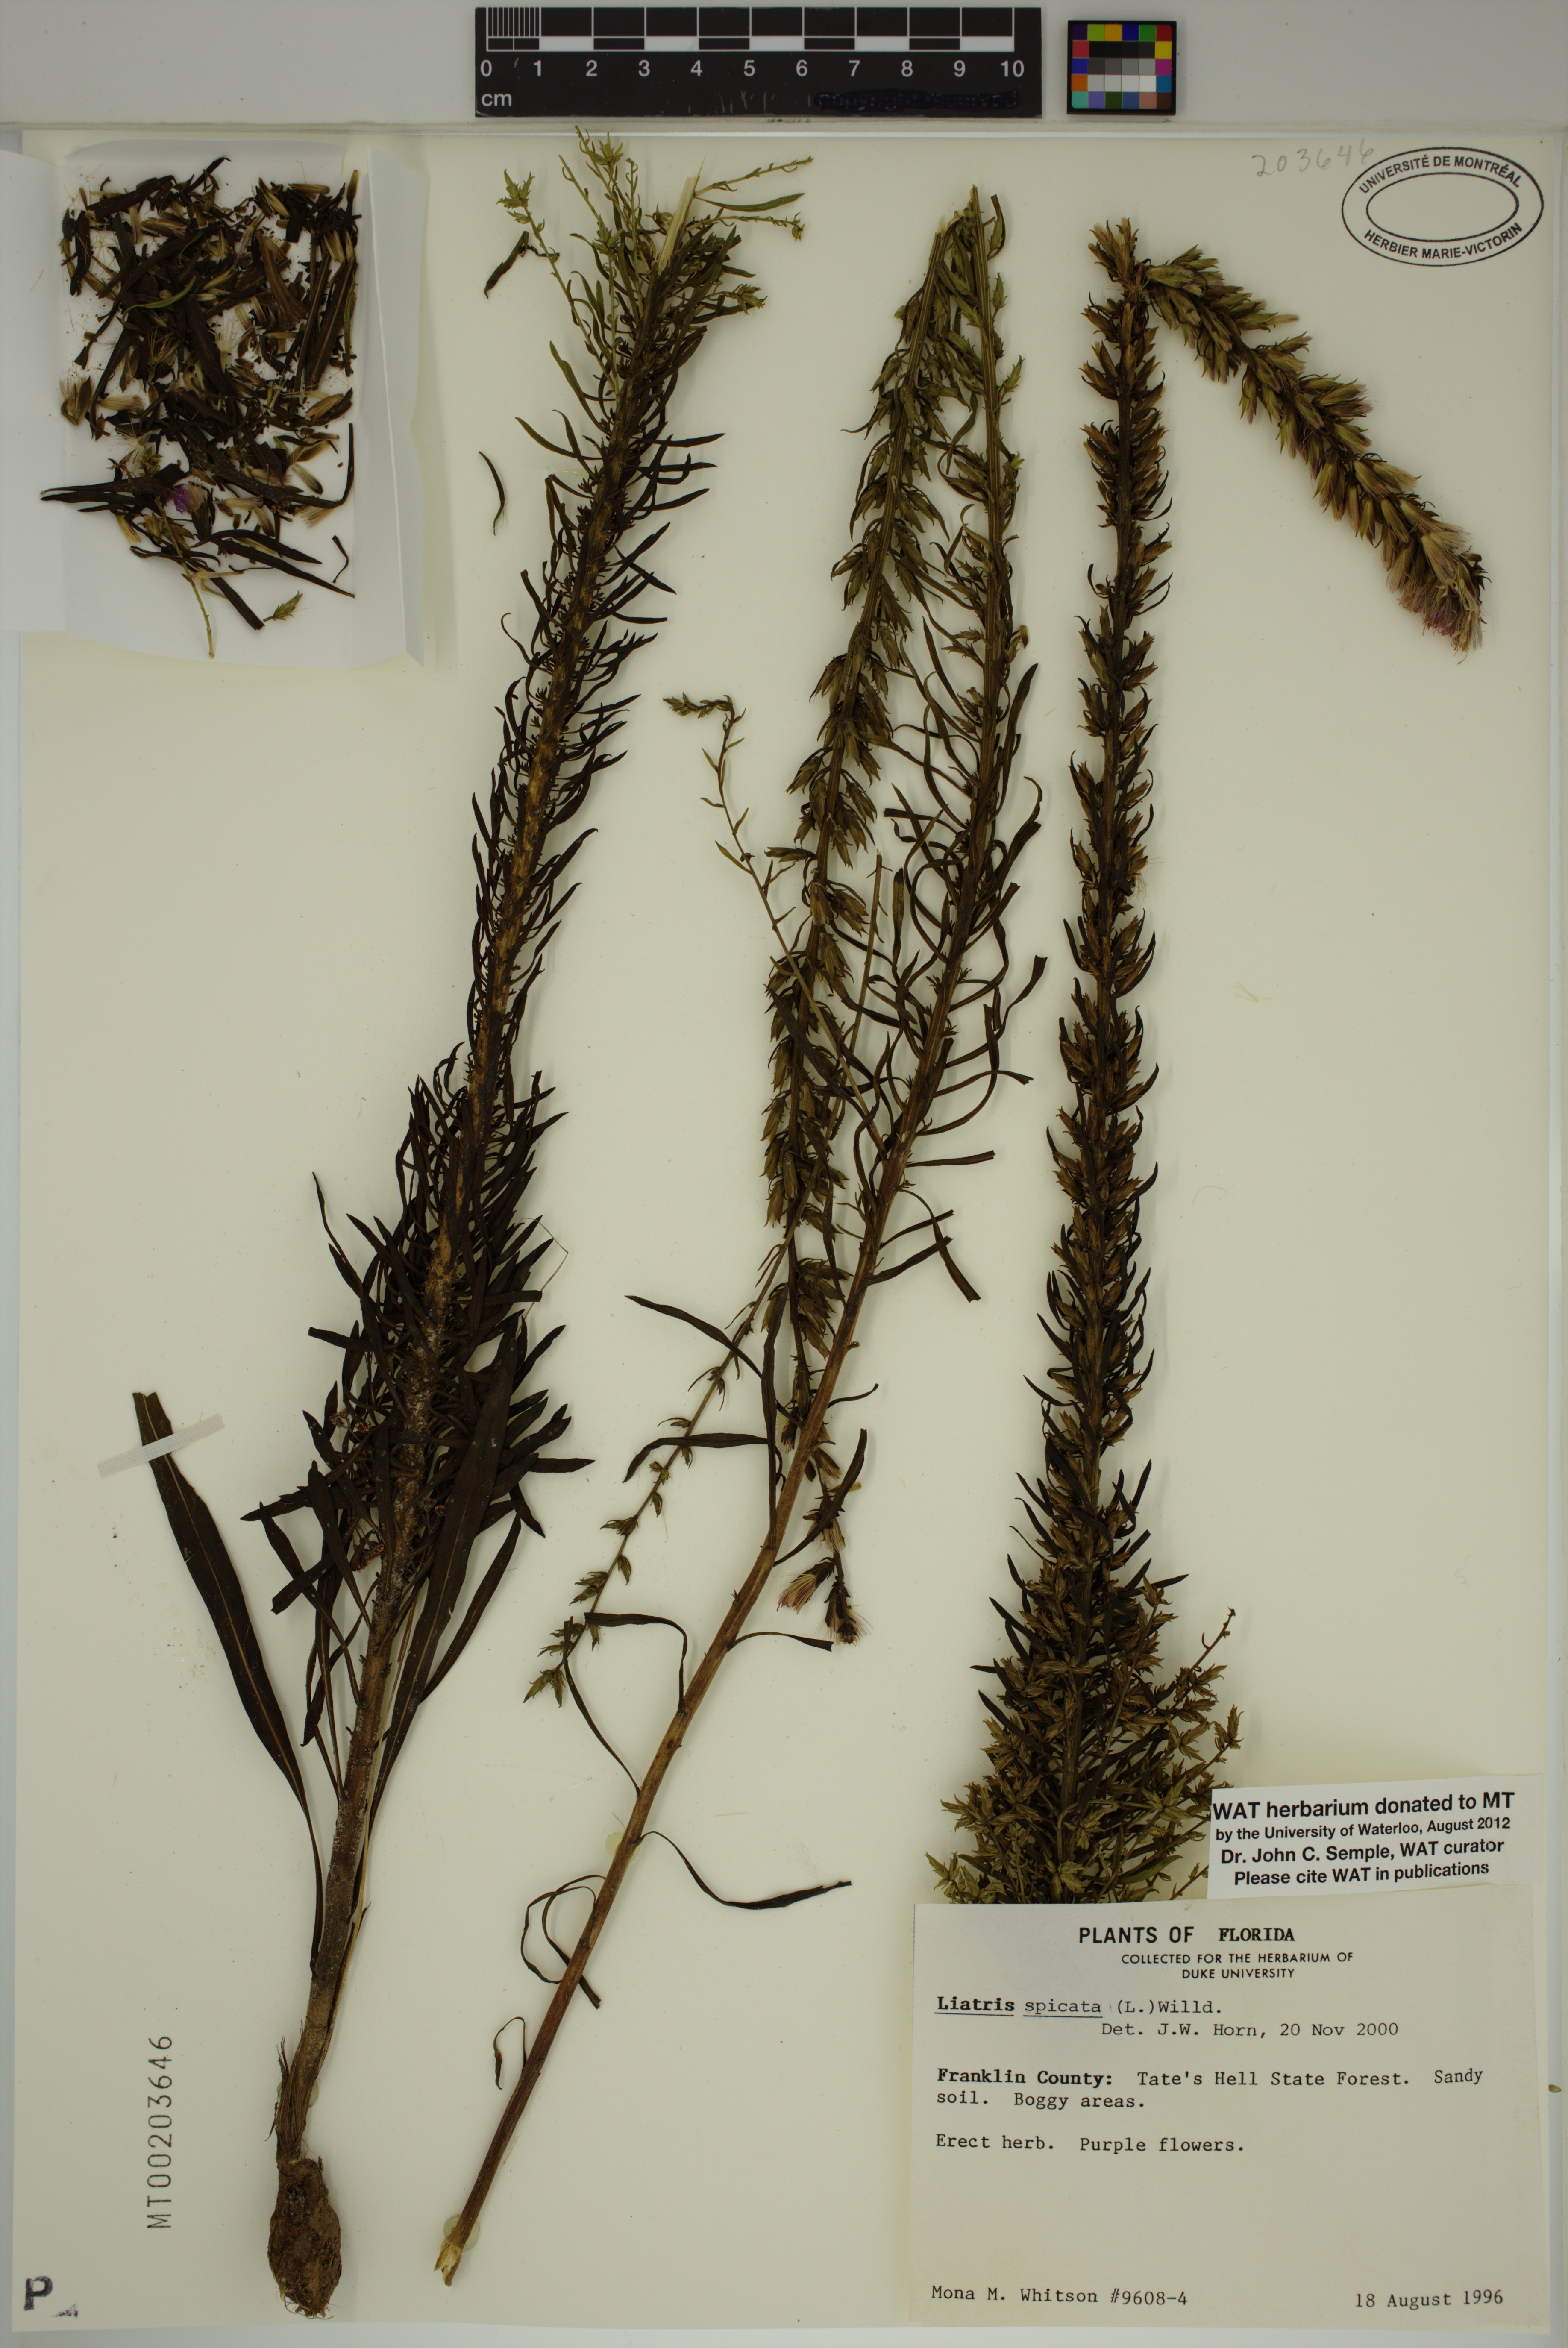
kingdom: Plantae
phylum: Tracheophyta
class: Magnoliopsida
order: Asterales
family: Asteraceae
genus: Liatris
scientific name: Liatris spicata
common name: Florist gayfeather
